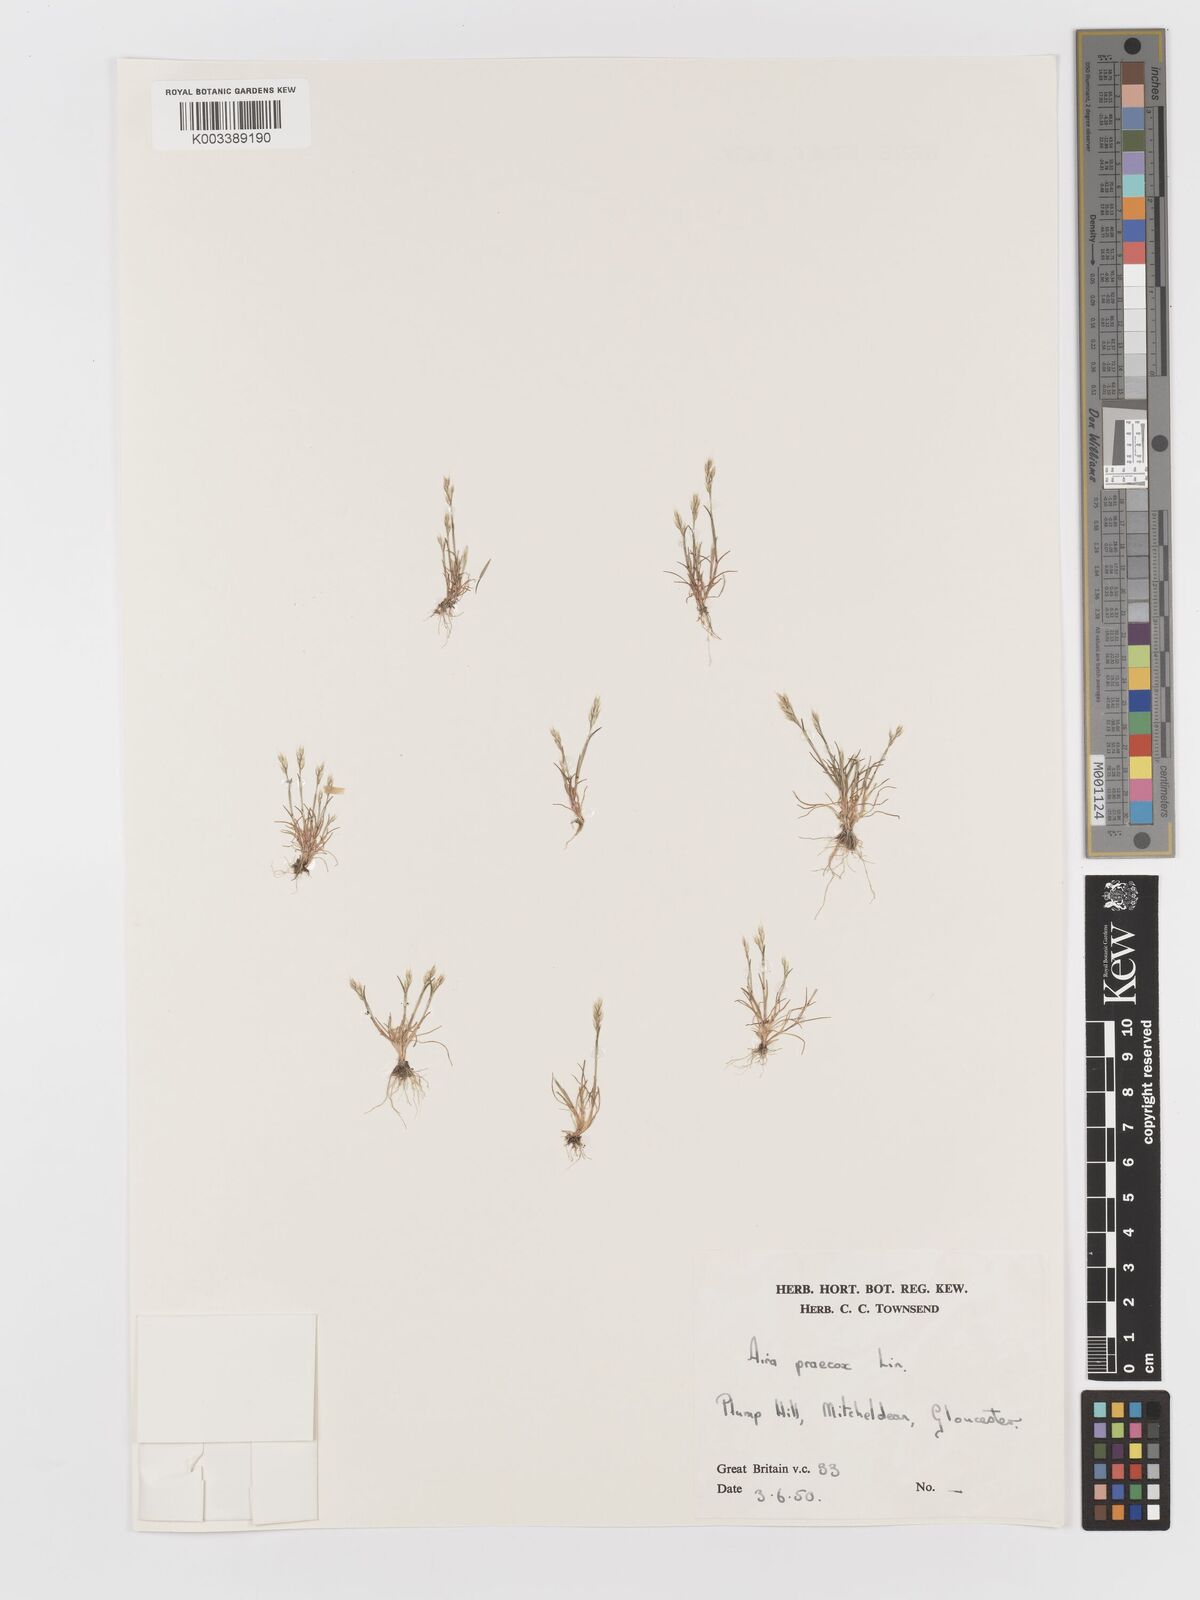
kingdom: Plantae
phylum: Tracheophyta
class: Liliopsida
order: Poales
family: Poaceae
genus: Aira
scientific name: Aira praecox
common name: Early hair-grass
